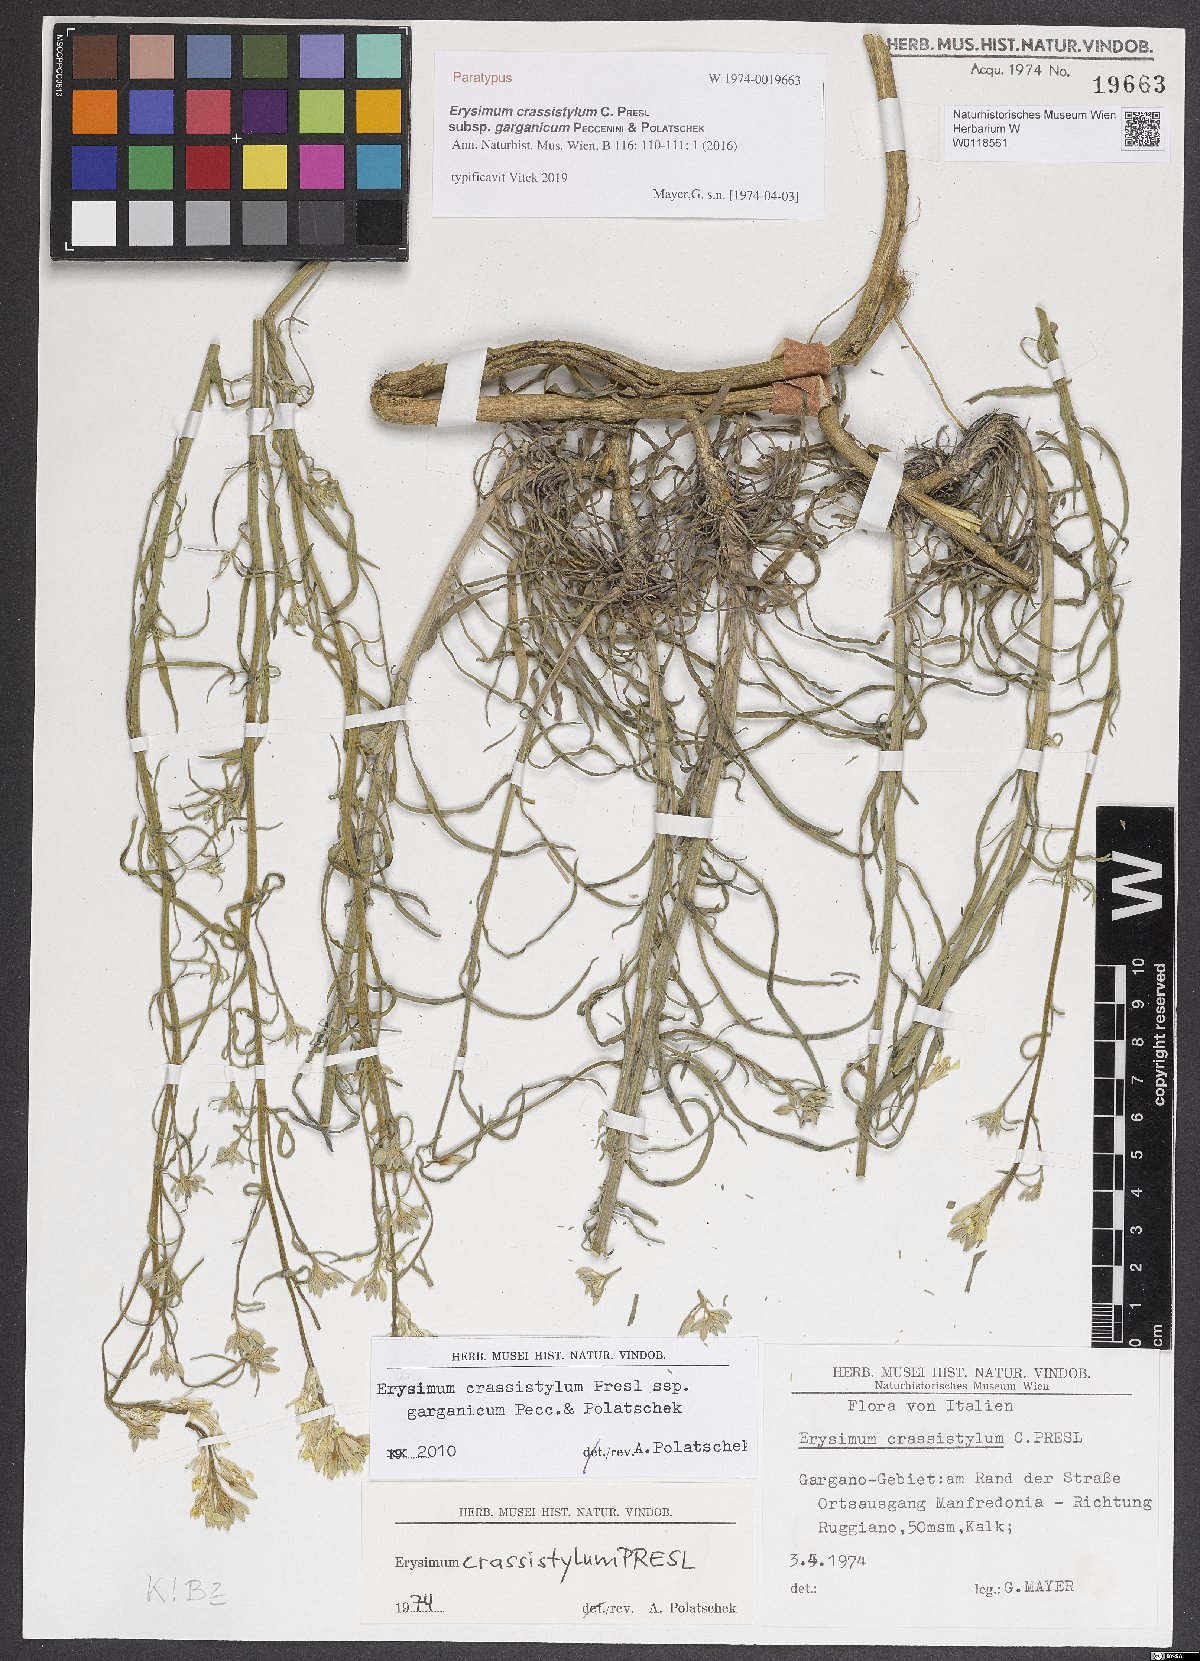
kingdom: Plantae
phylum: Tracheophyta
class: Magnoliopsida
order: Brassicales
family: Brassicaceae
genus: Erysimum
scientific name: Erysimum crassistylum
